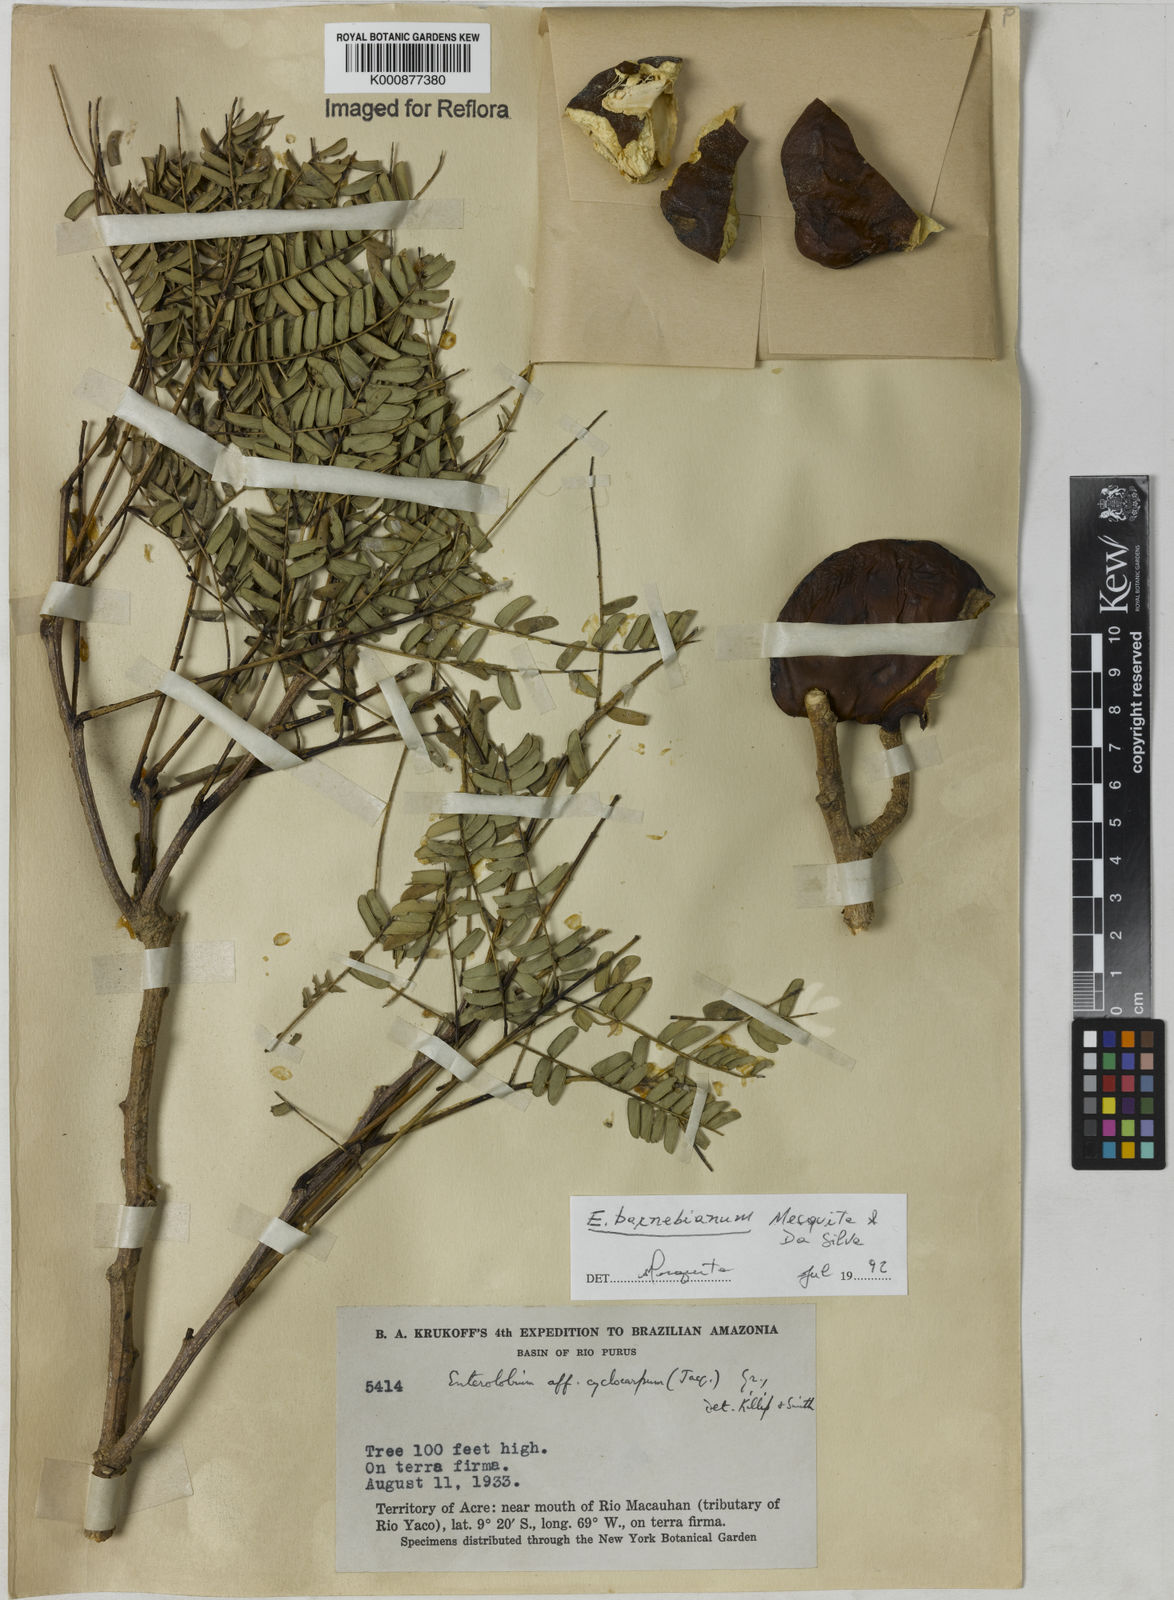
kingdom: Plantae
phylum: Tracheophyta
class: Magnoliopsida
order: Fabales
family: Fabaceae
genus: Enterolobium
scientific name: Enterolobium cyclocarpum
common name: Ear tree
